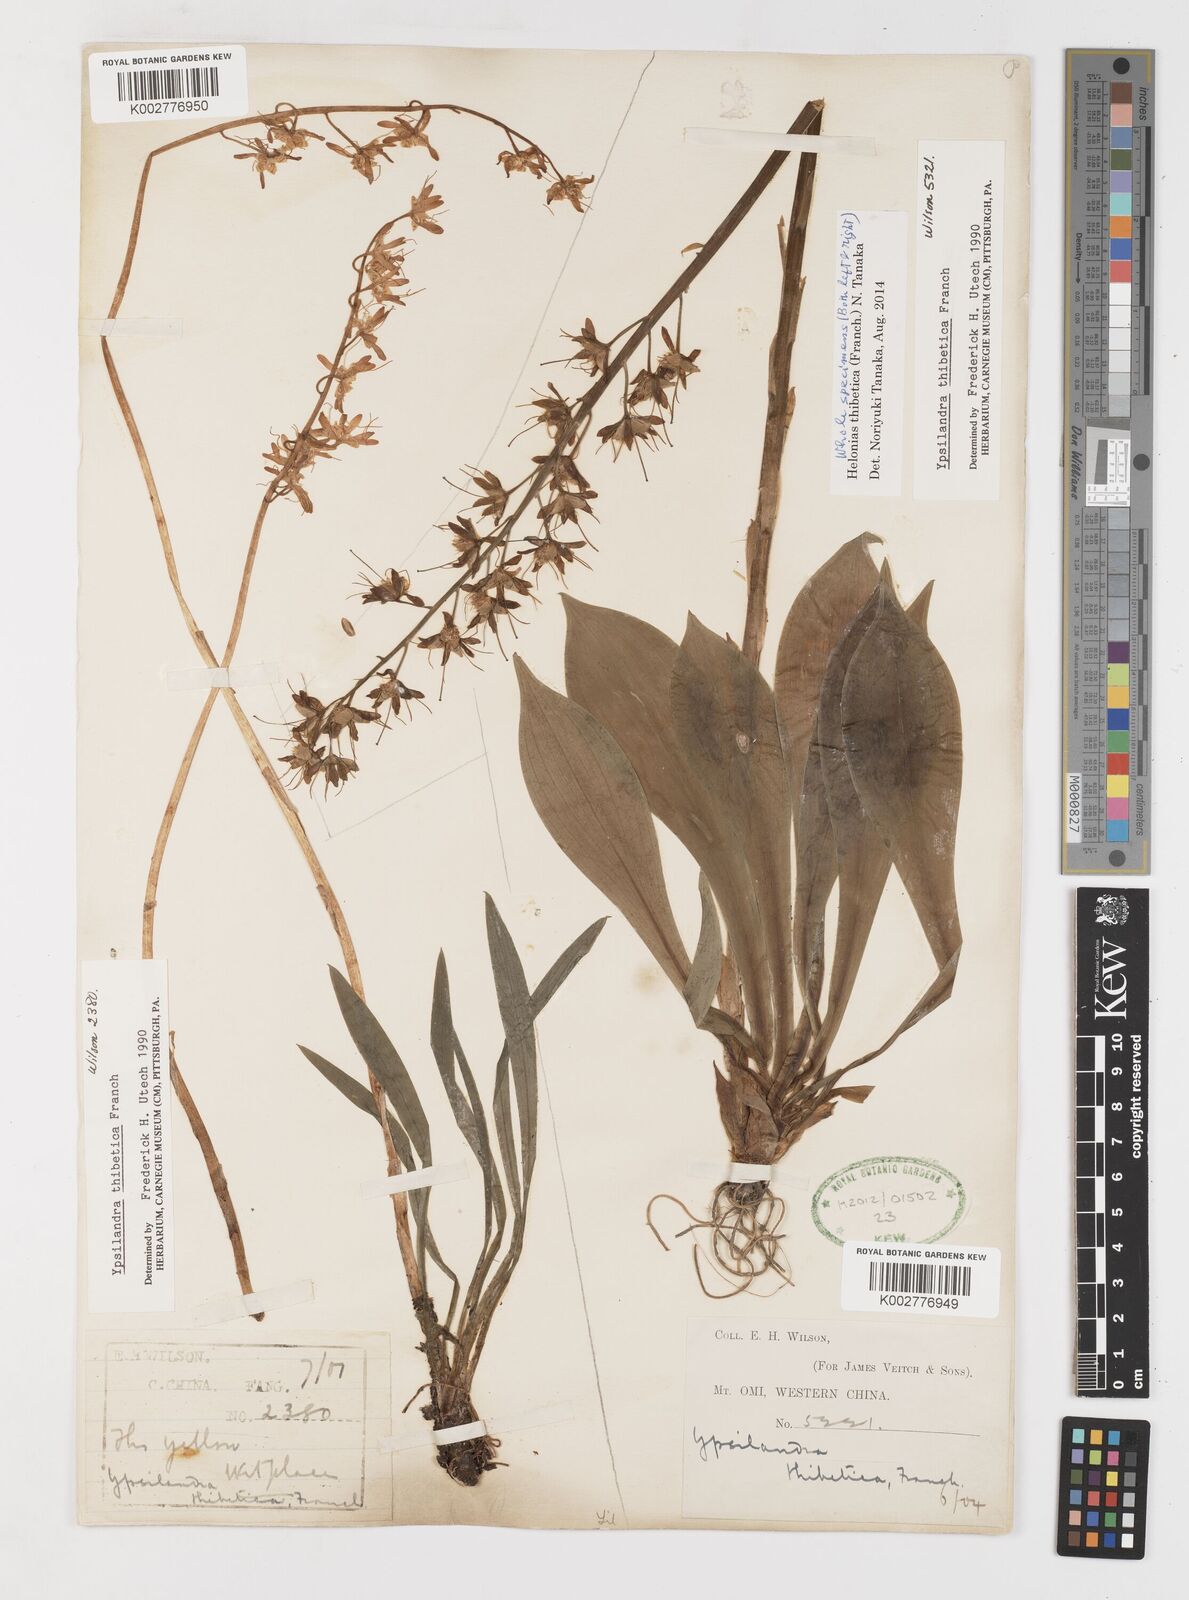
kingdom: Plantae
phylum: Tracheophyta
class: Liliopsida
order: Liliales
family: Melanthiaceae
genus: Helonias
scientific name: Helonias thibetica
